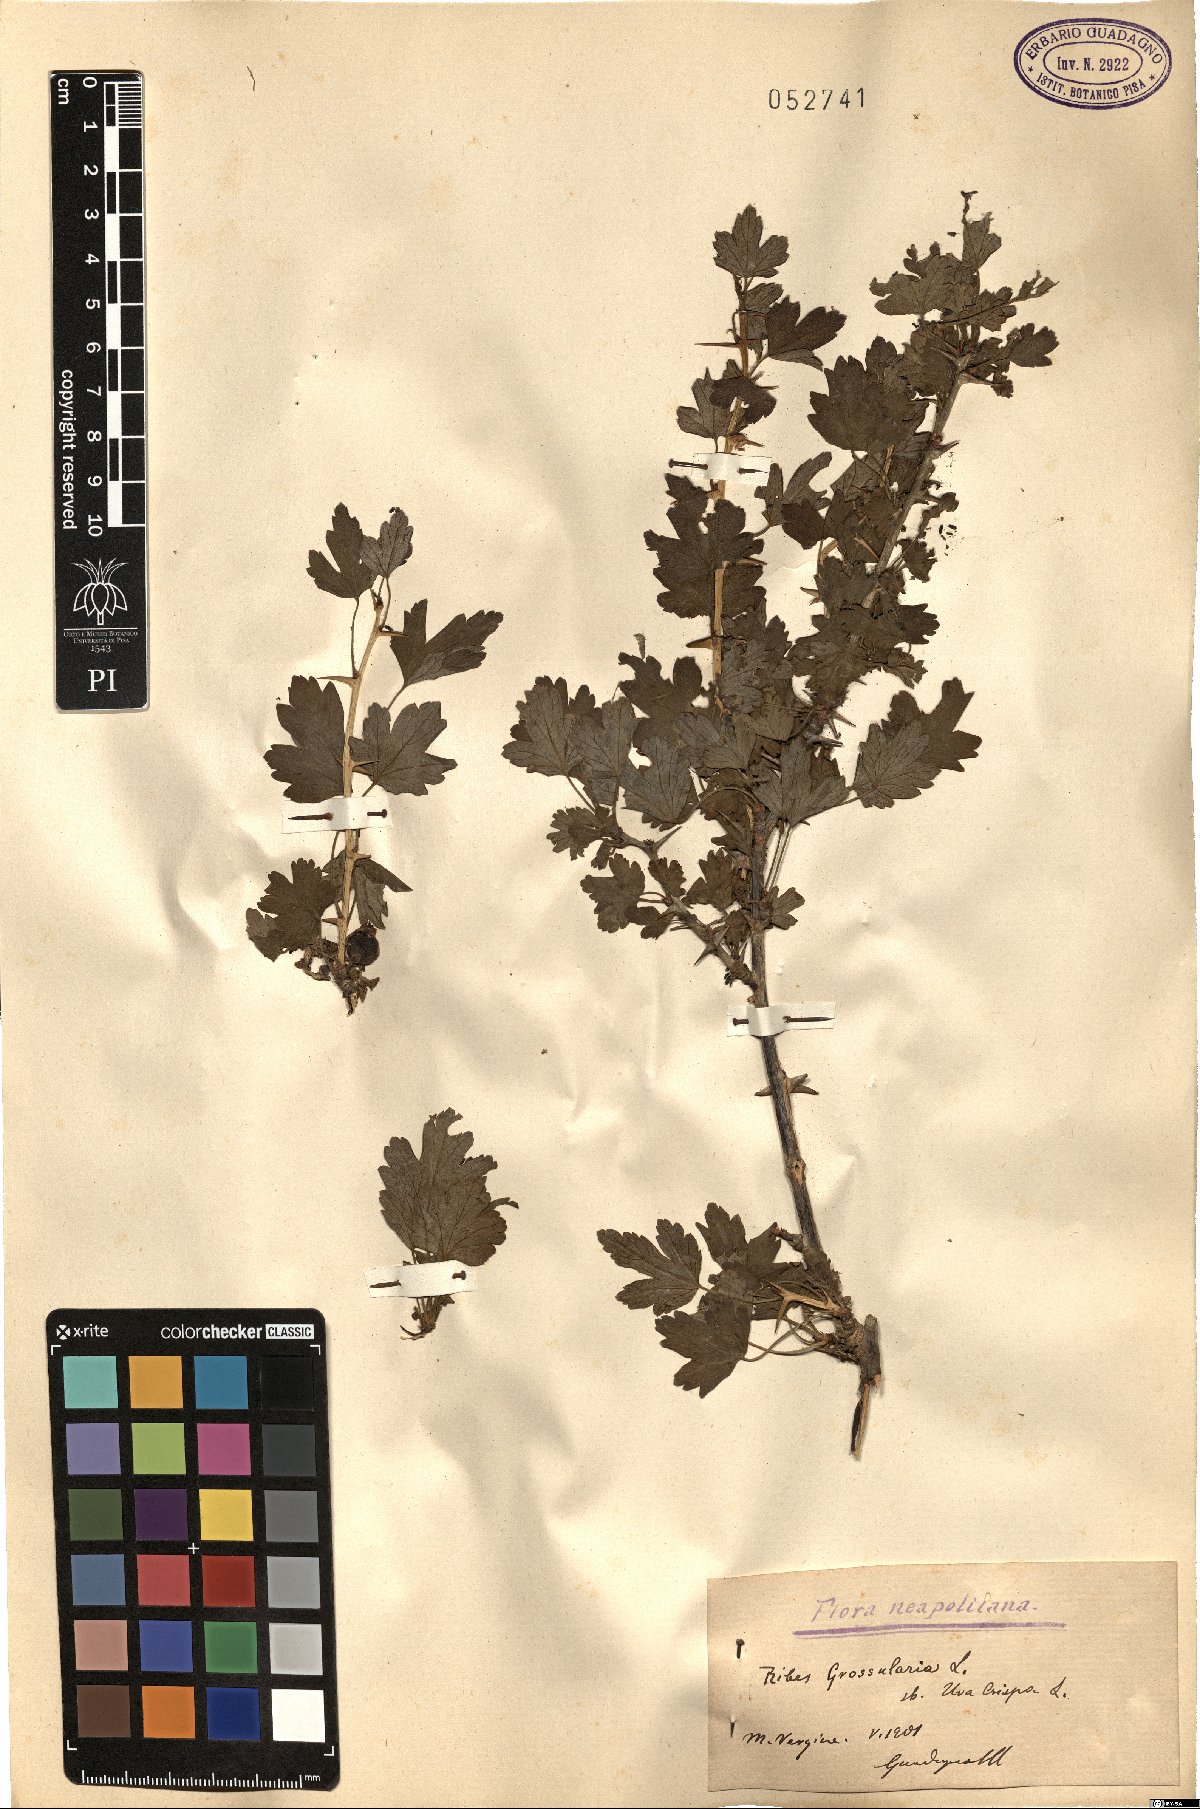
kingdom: Plantae
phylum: Tracheophyta
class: Magnoliopsida
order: Saxifragales
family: Grossulariaceae
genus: Ribes
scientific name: Ribes uva-crispa
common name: Gooseberry
